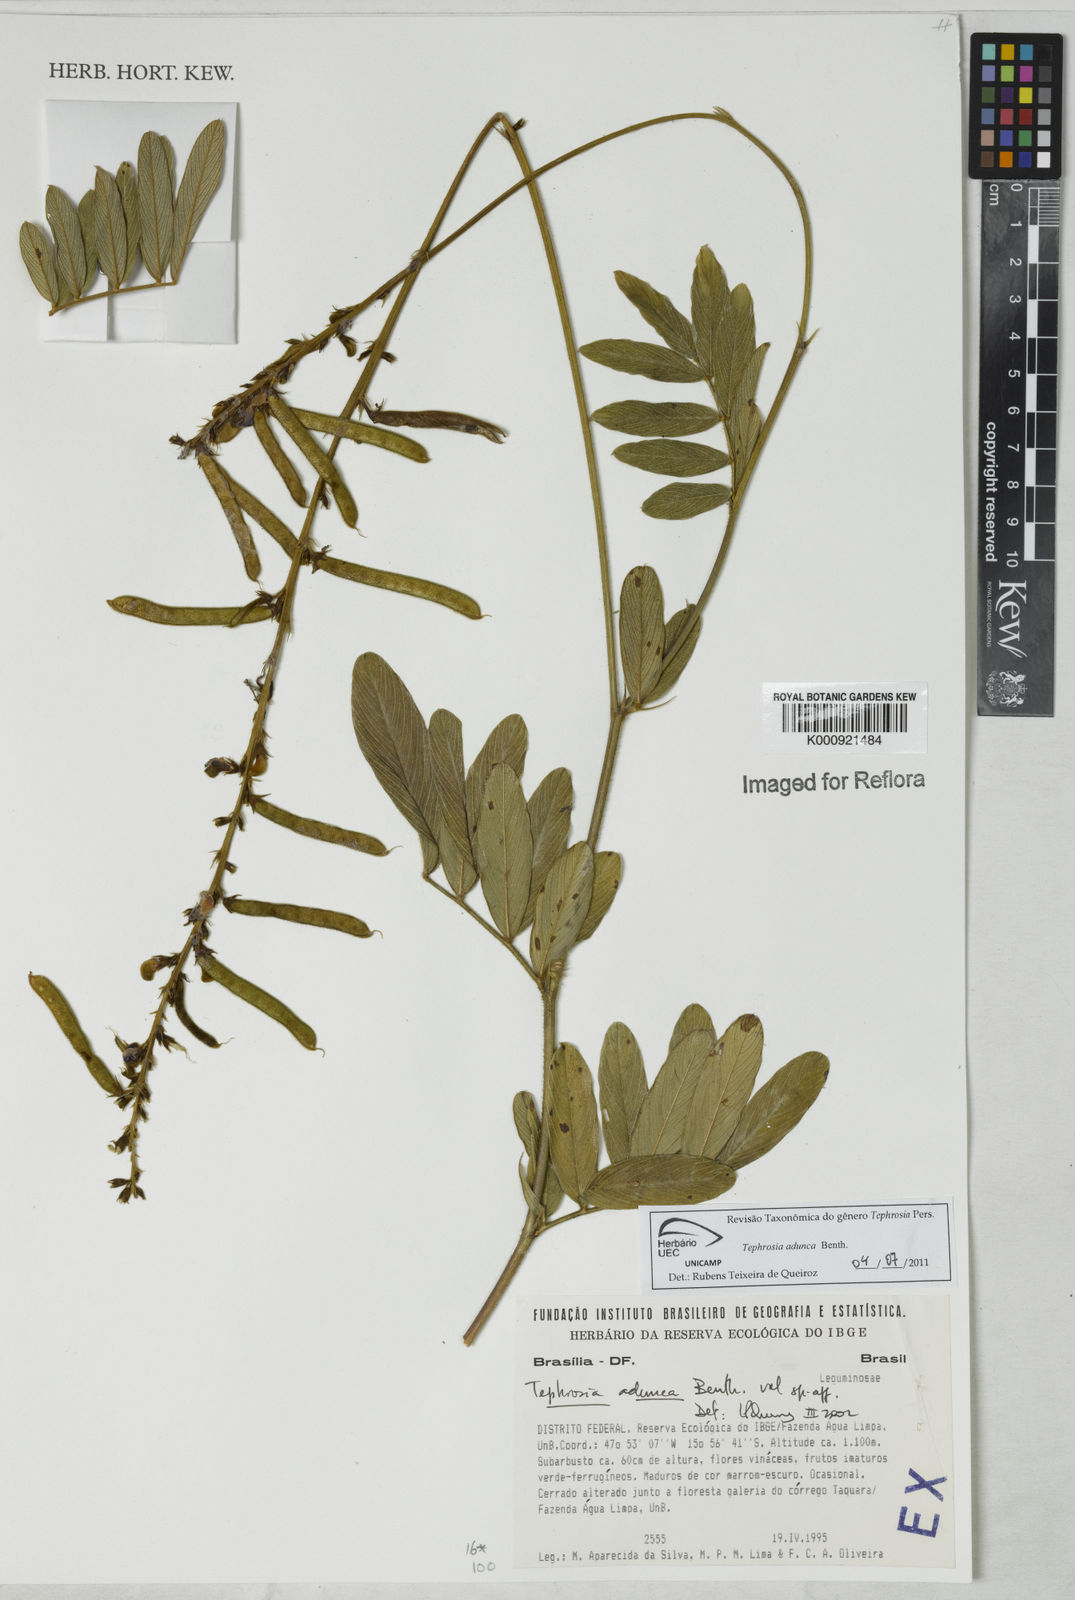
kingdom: Plantae
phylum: Tracheophyta
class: Magnoliopsida
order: Fabales
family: Fabaceae
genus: Tephrosia
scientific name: Tephrosia adunca
